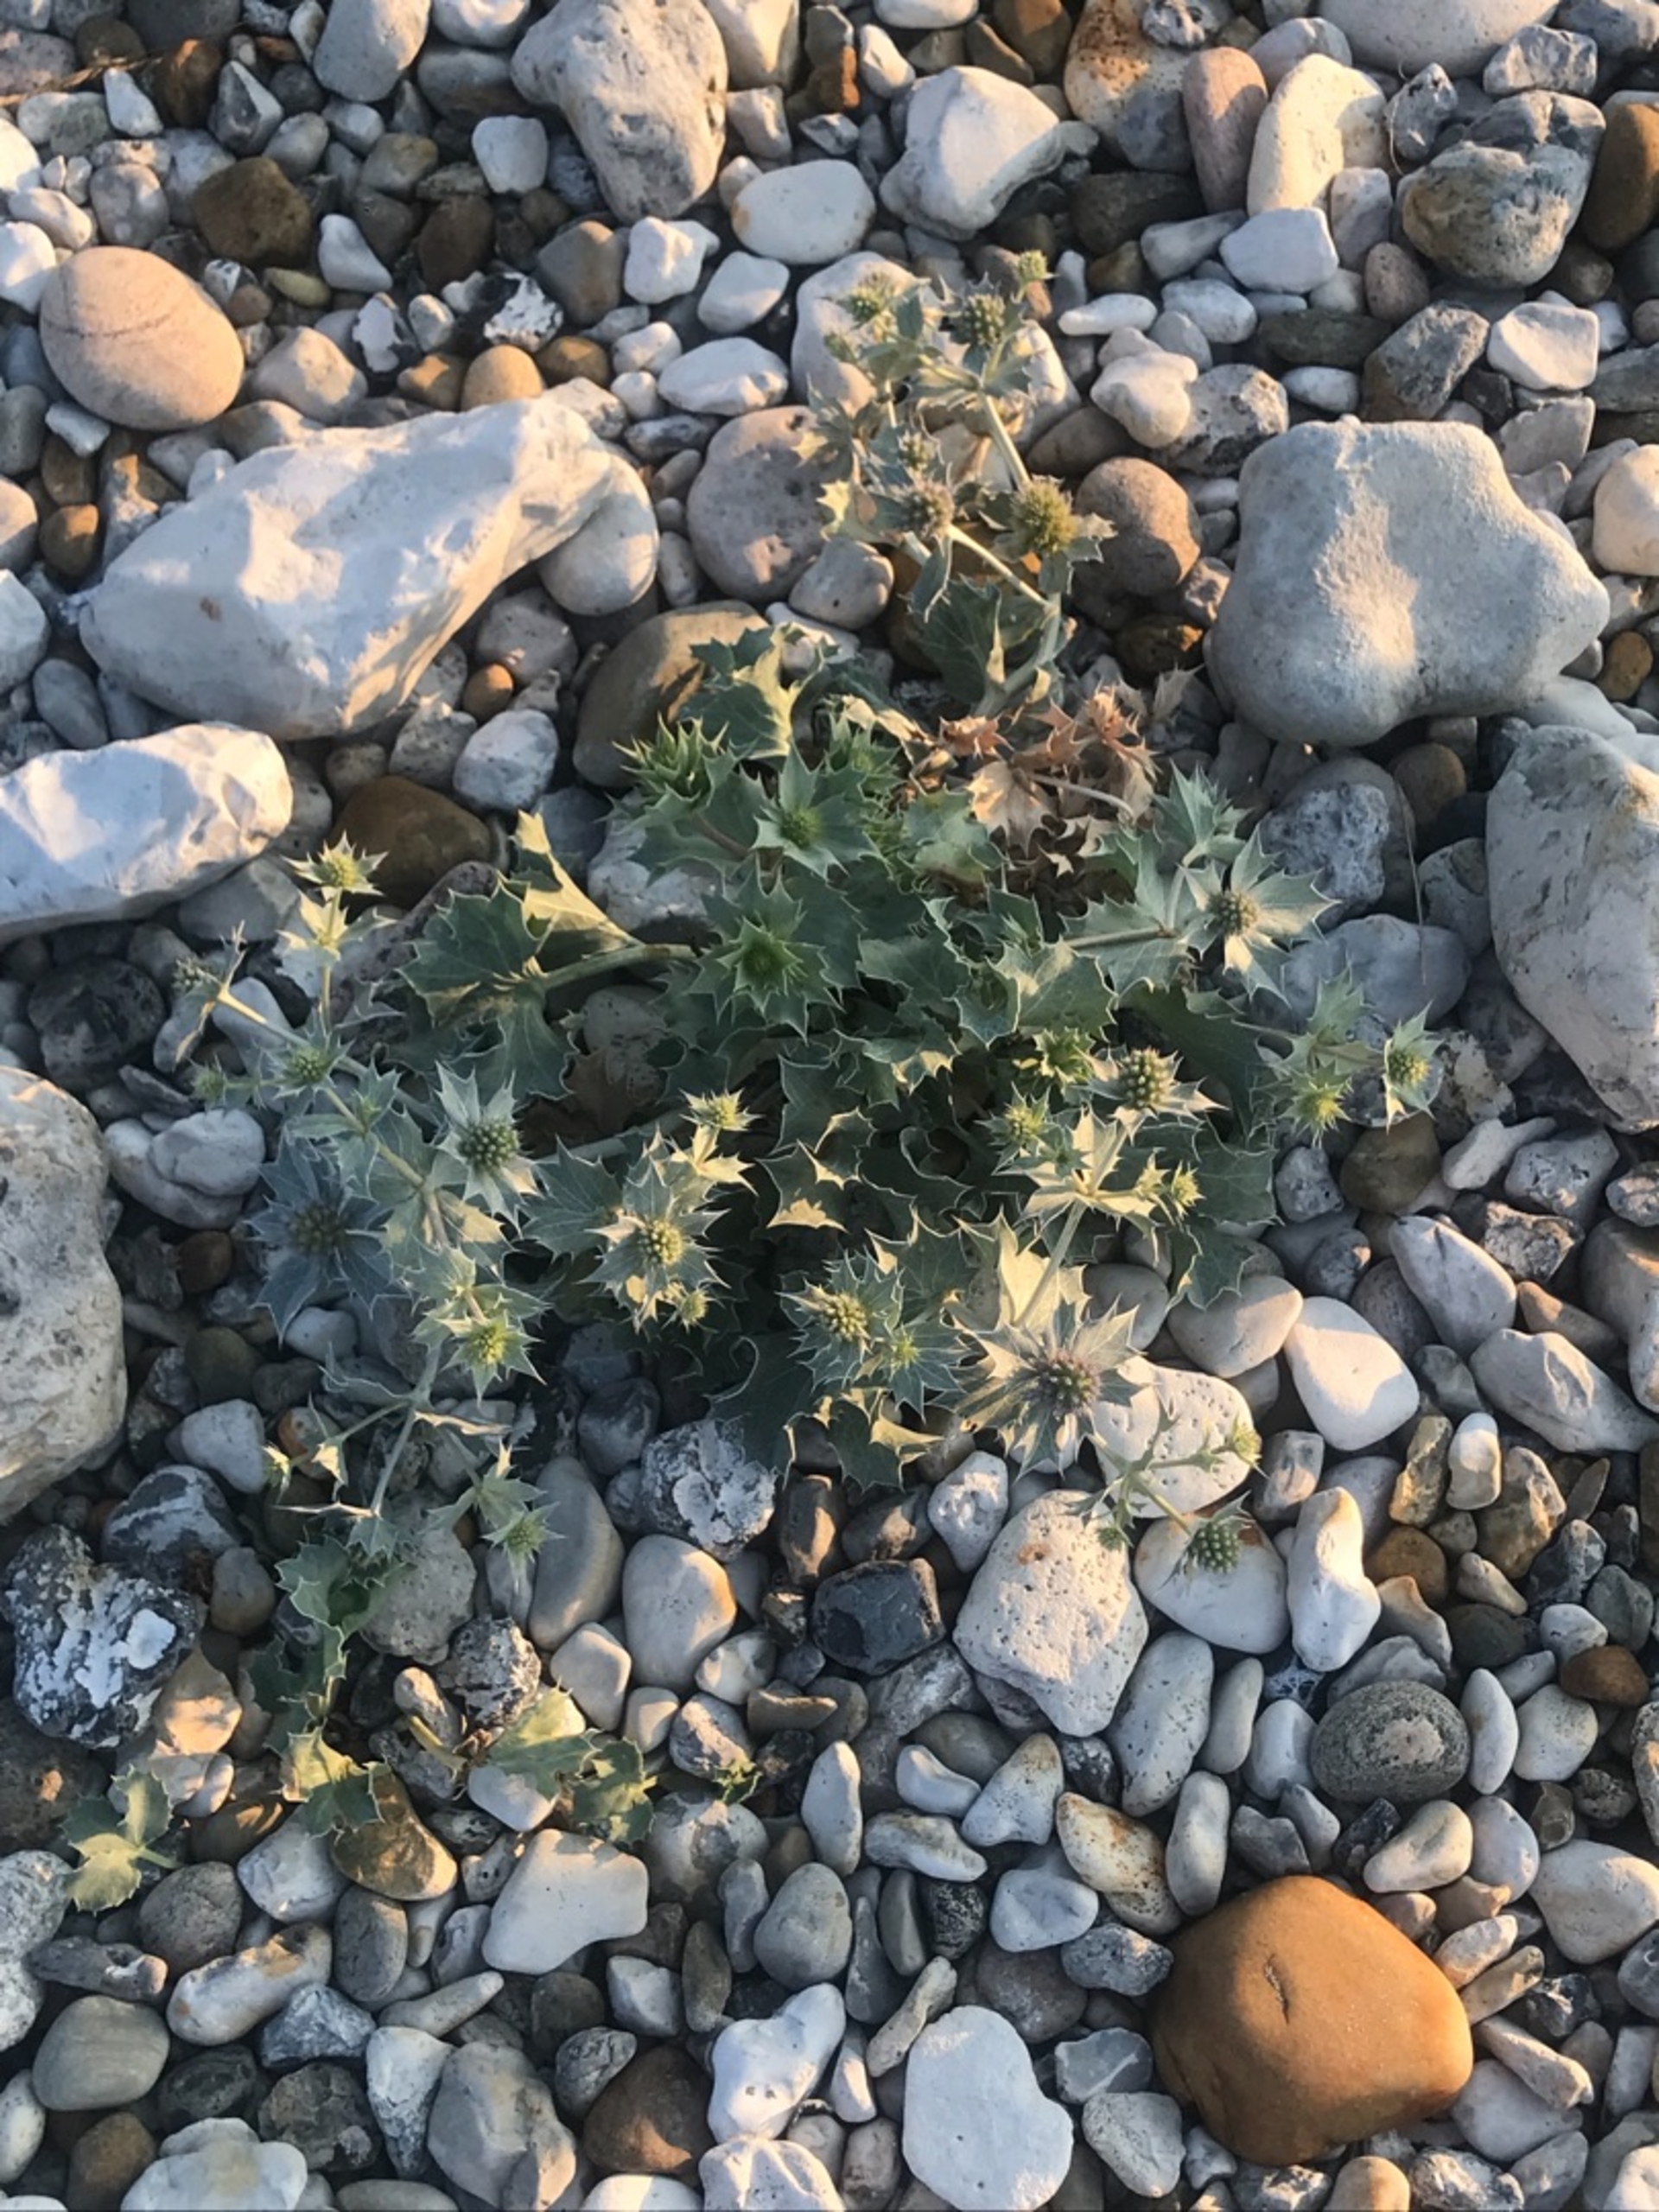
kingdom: Plantae
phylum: Tracheophyta
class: Magnoliopsida
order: Apiales
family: Apiaceae
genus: Eryngium
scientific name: Eryngium maritimum
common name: Strand-mandstro
